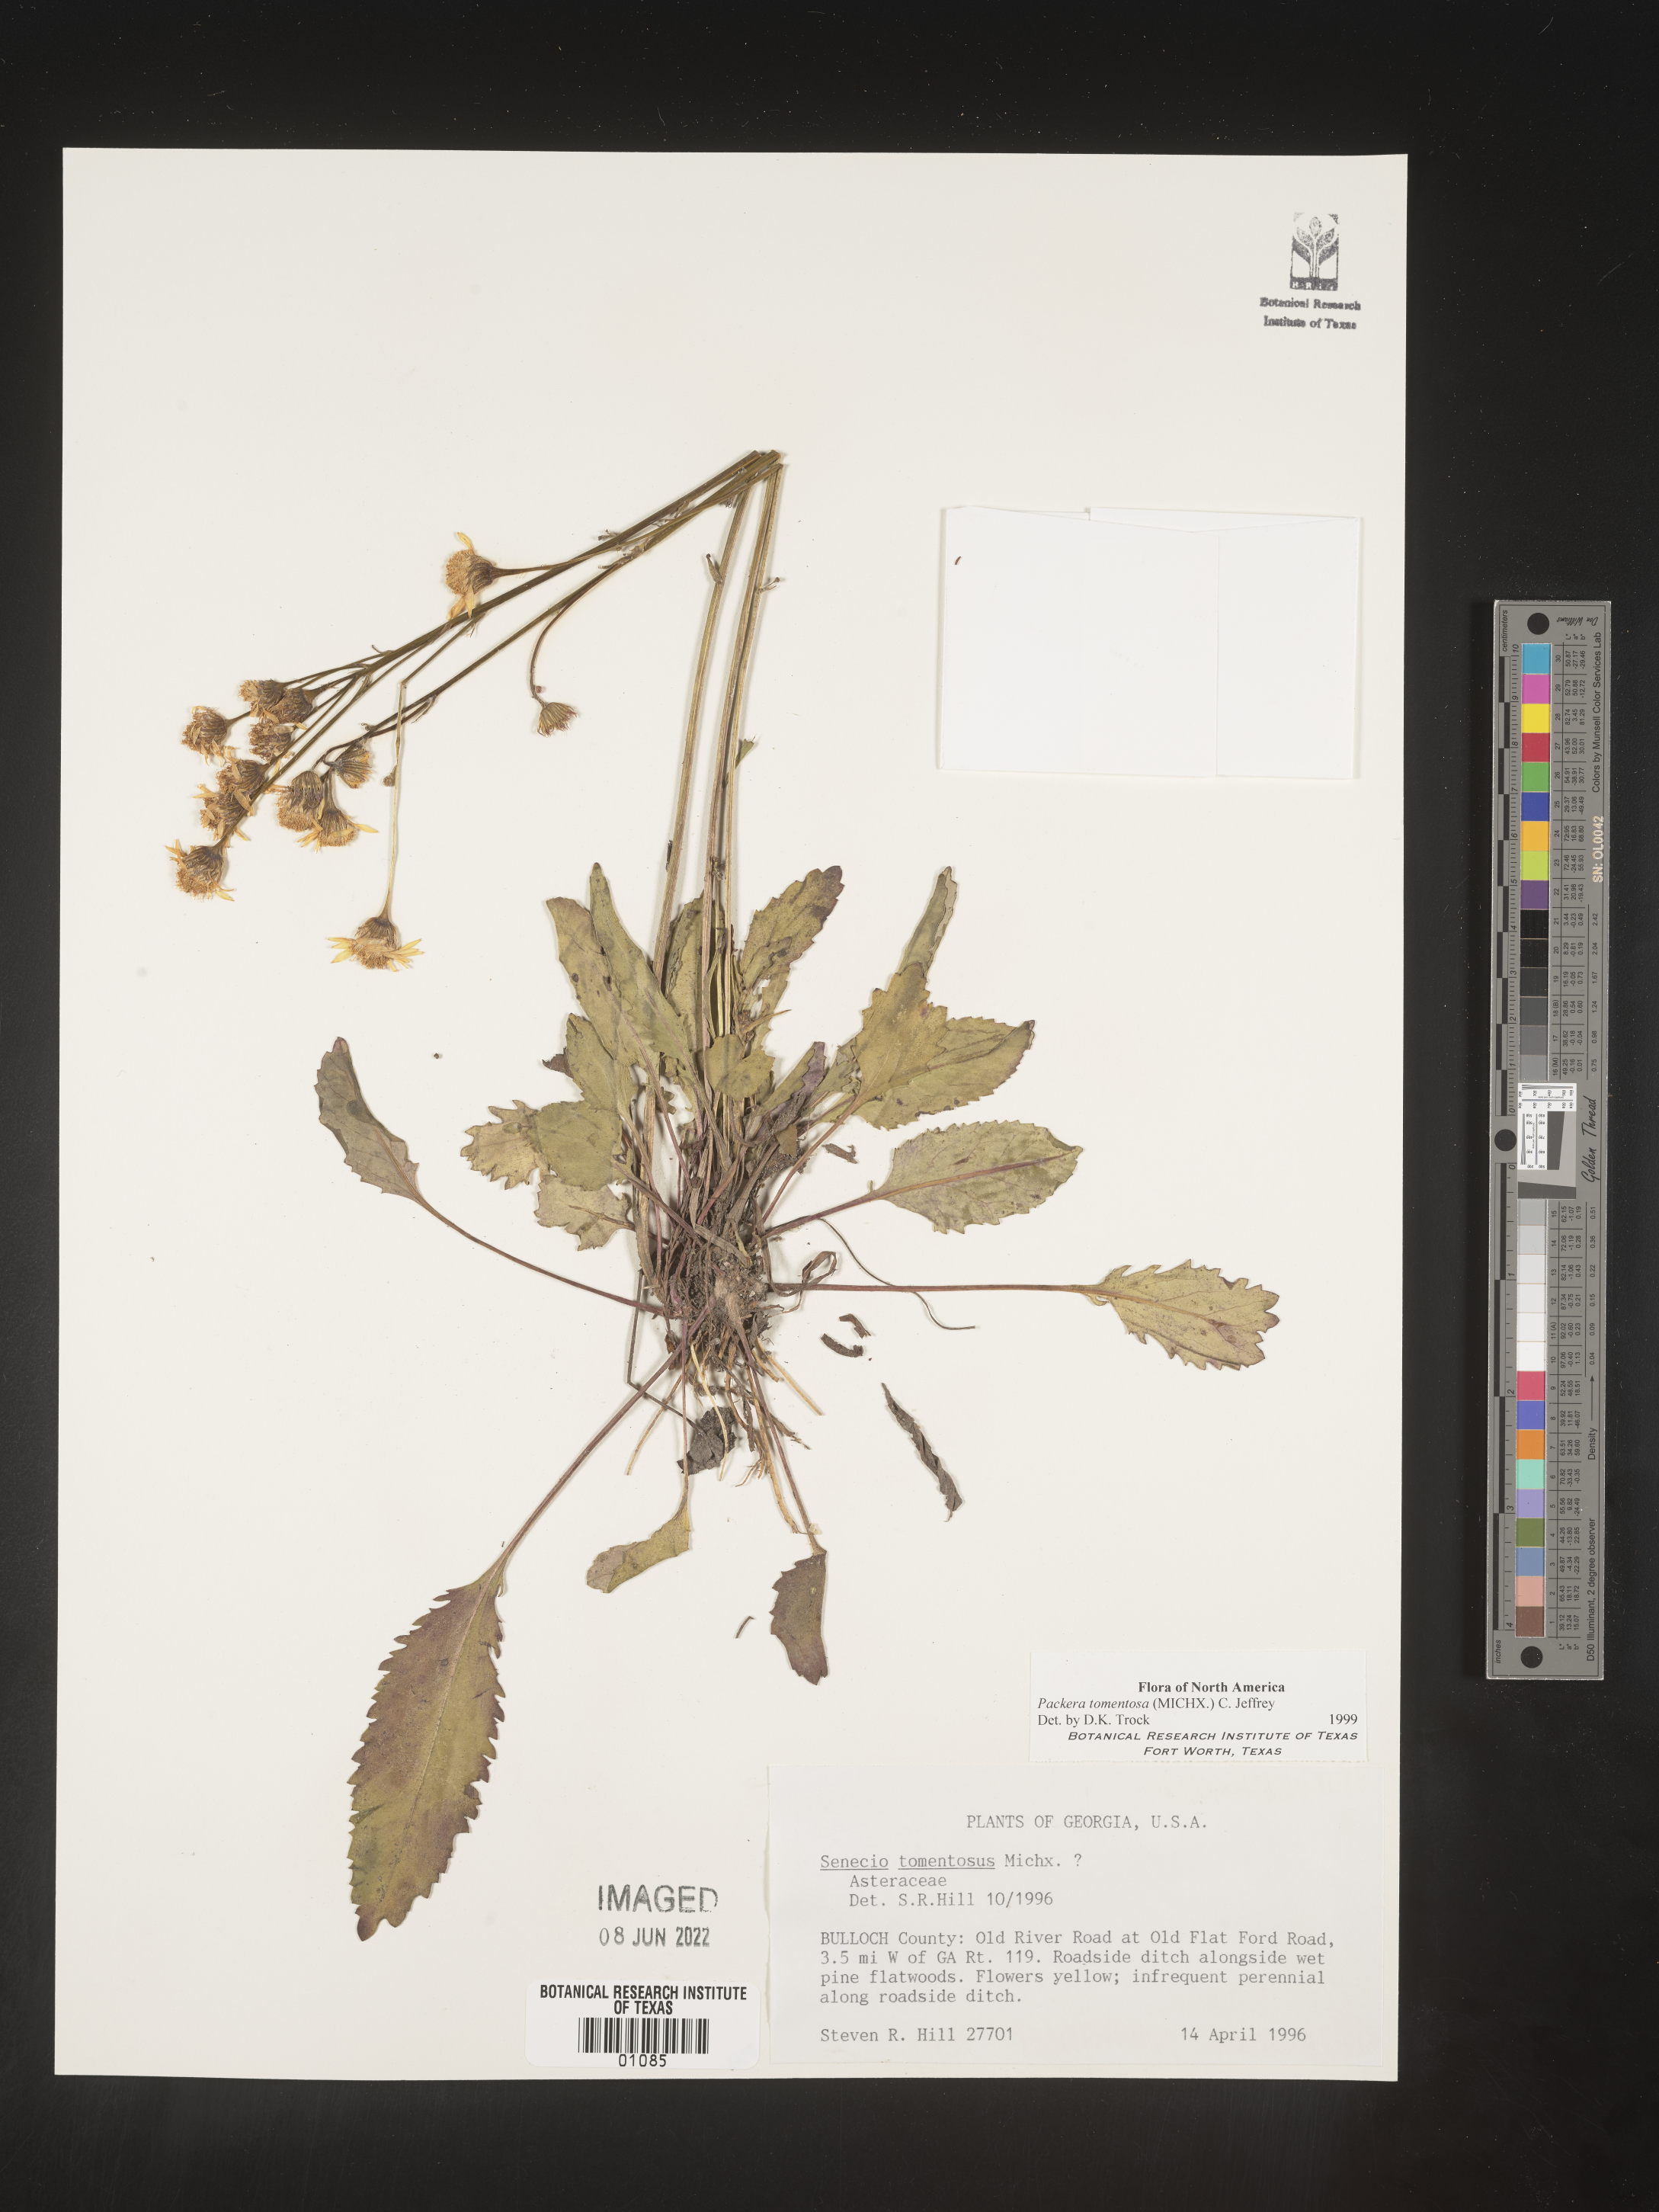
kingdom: Plantae
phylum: Tracheophyta
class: Magnoliopsida
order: Asterales
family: Asteraceae
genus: Packera
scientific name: Packera dubia
